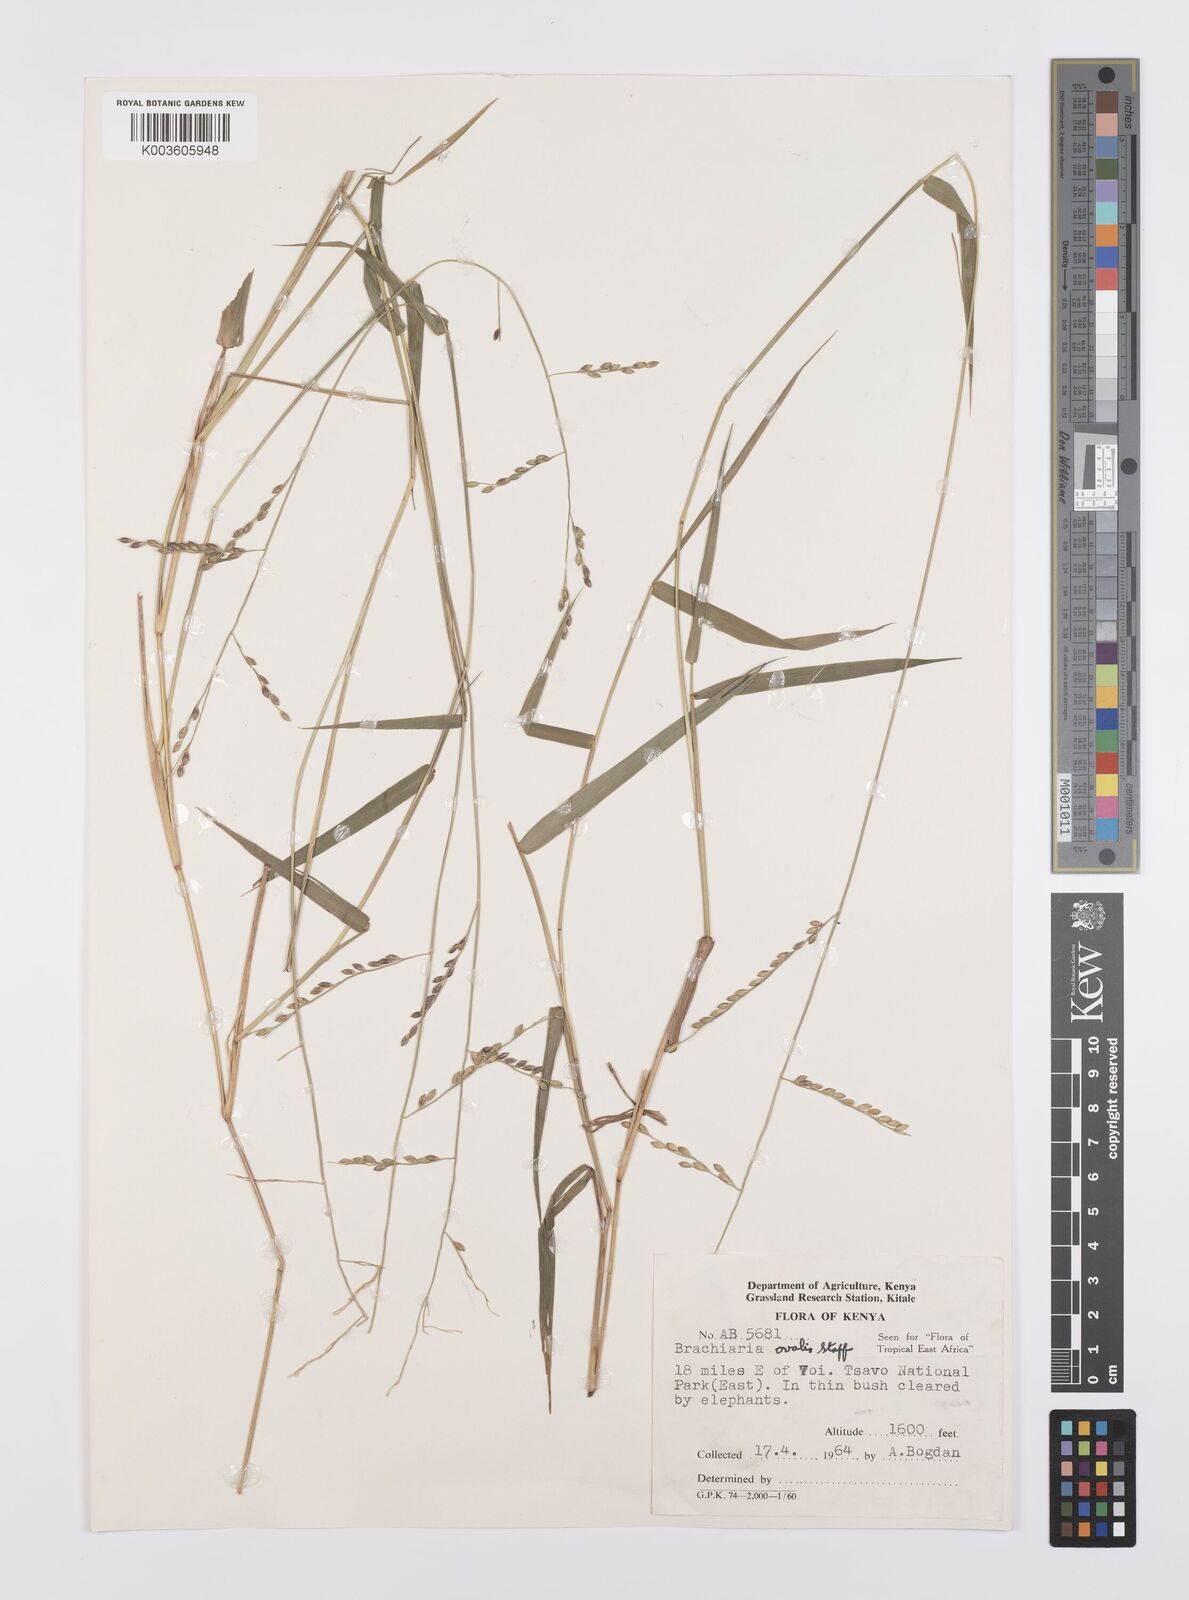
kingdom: Plantae
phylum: Tracheophyta
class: Liliopsida
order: Poales
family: Poaceae
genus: Urochloa
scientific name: Urochloa ovalis
